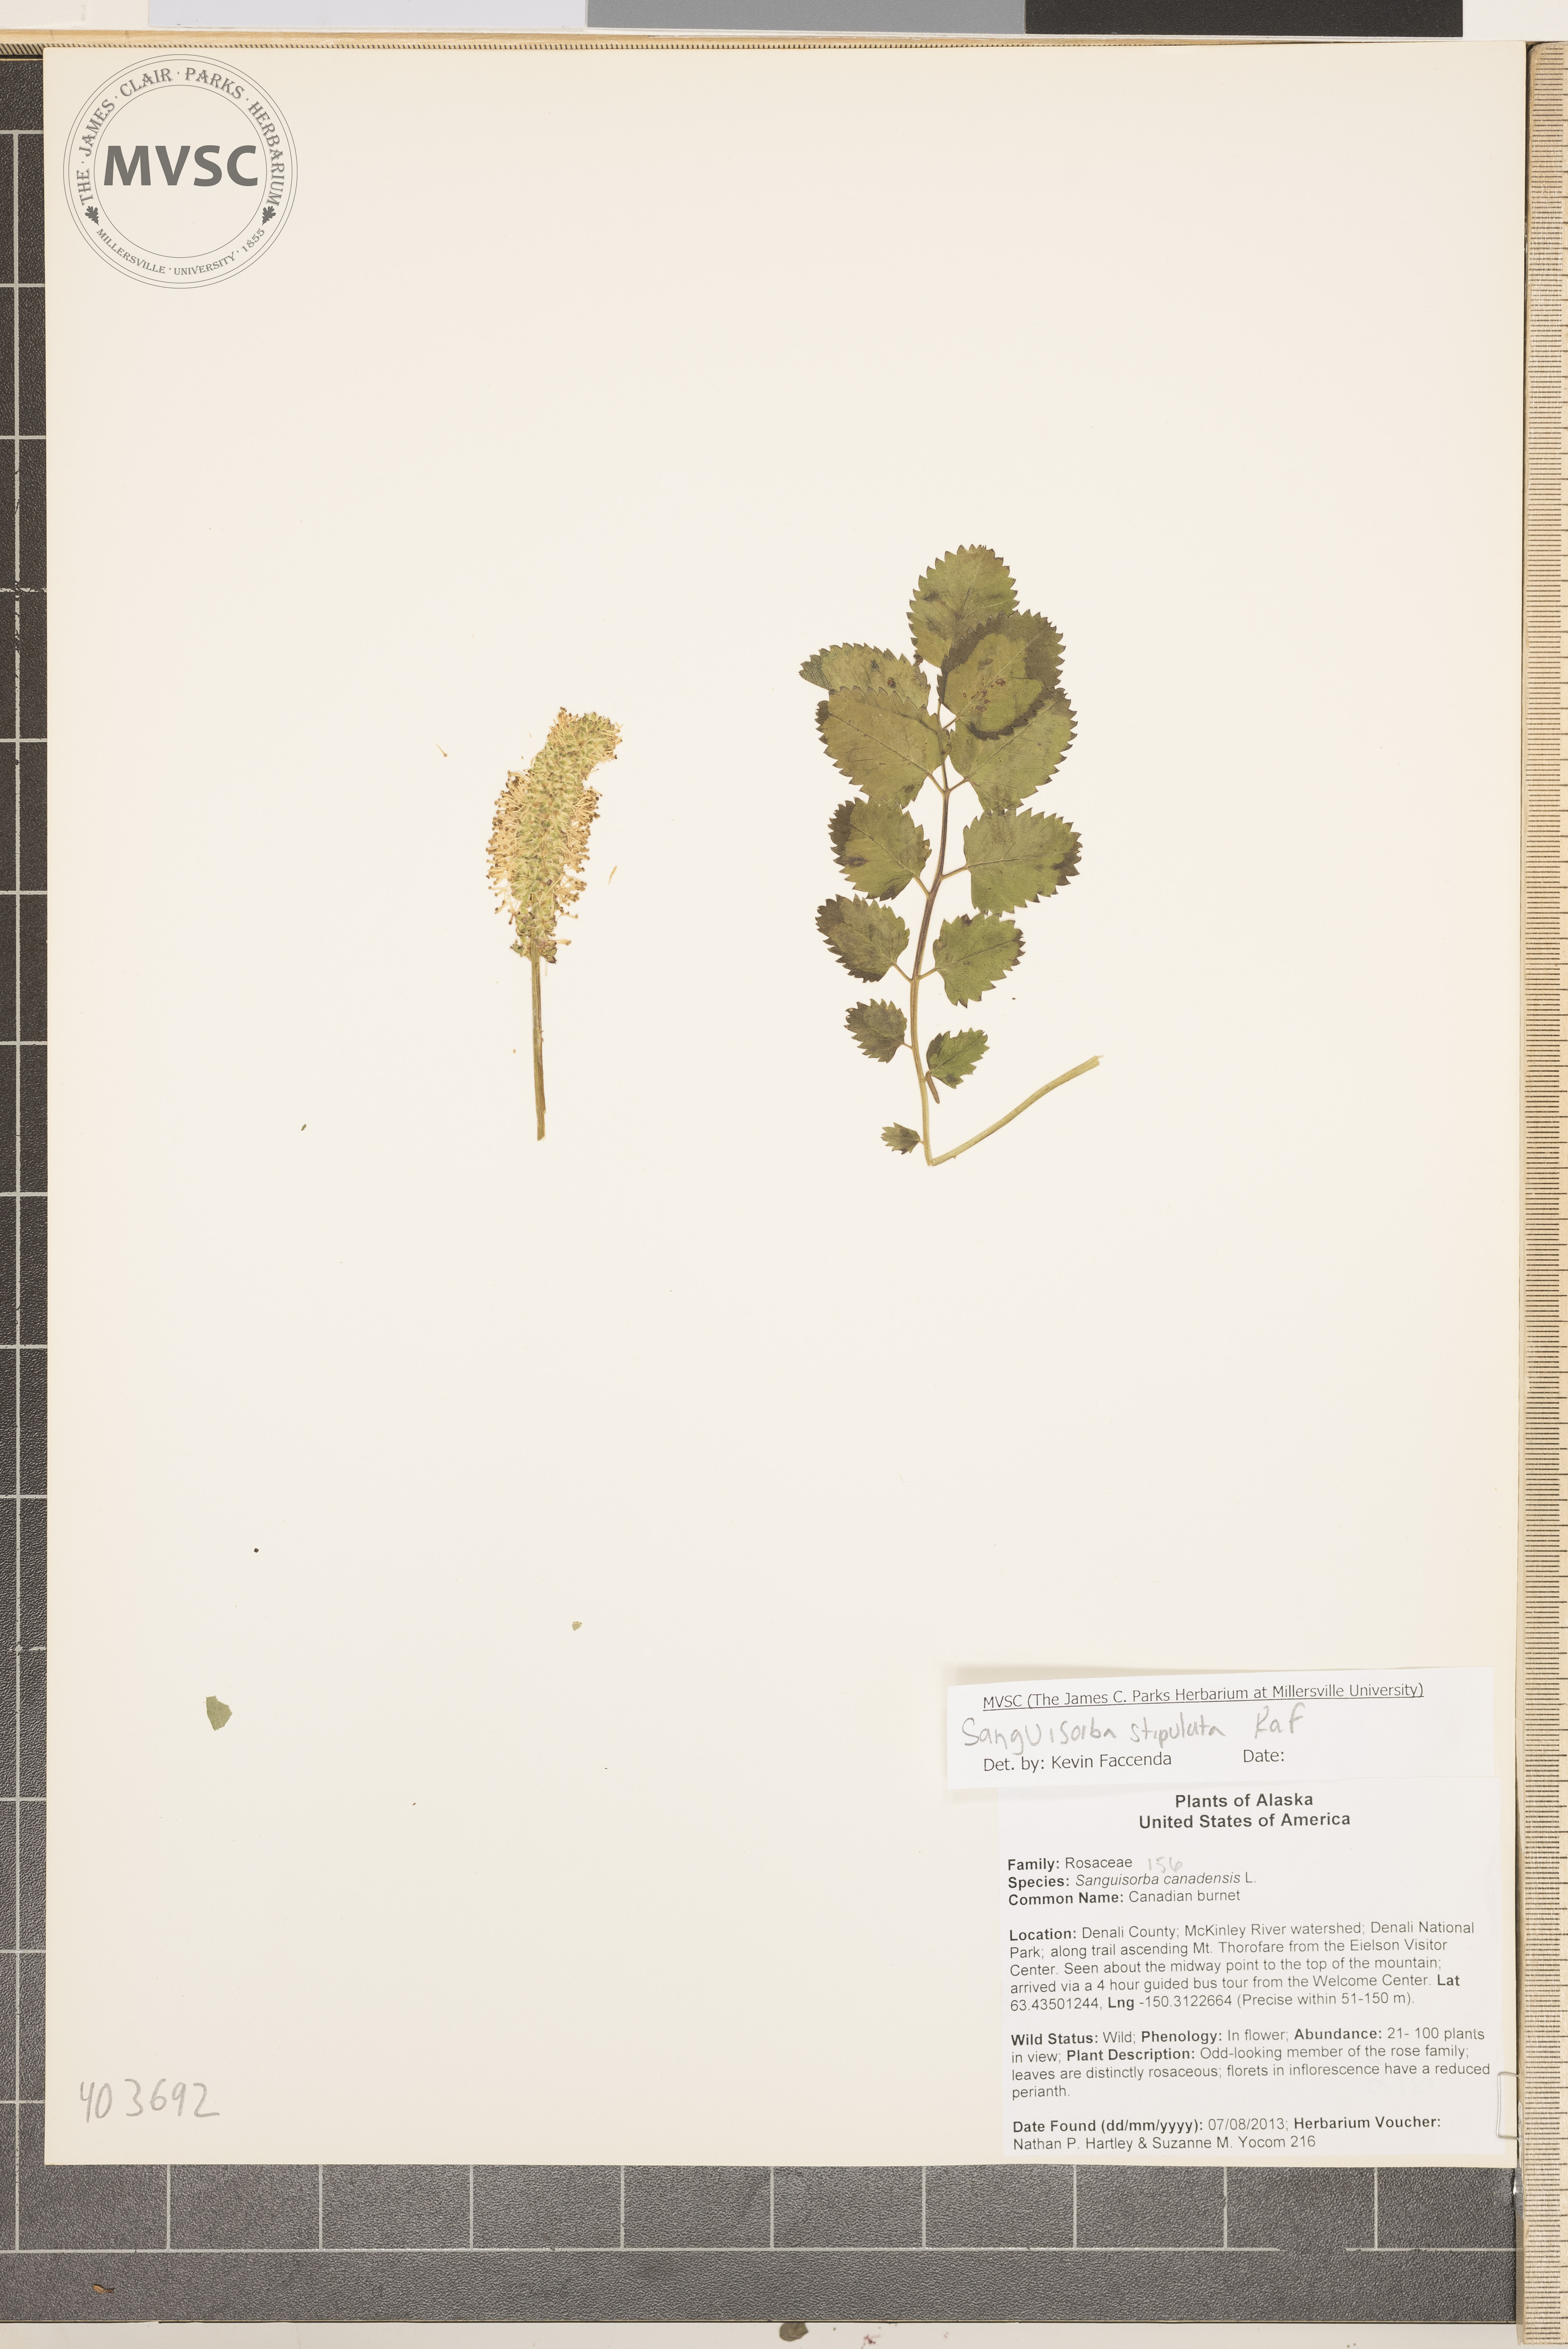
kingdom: Plantae
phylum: Tracheophyta
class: Magnoliopsida
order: Rosales
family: Rosaceae
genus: Sanguisorba
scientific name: Sanguisorba stipulata
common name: Canadian burnet
